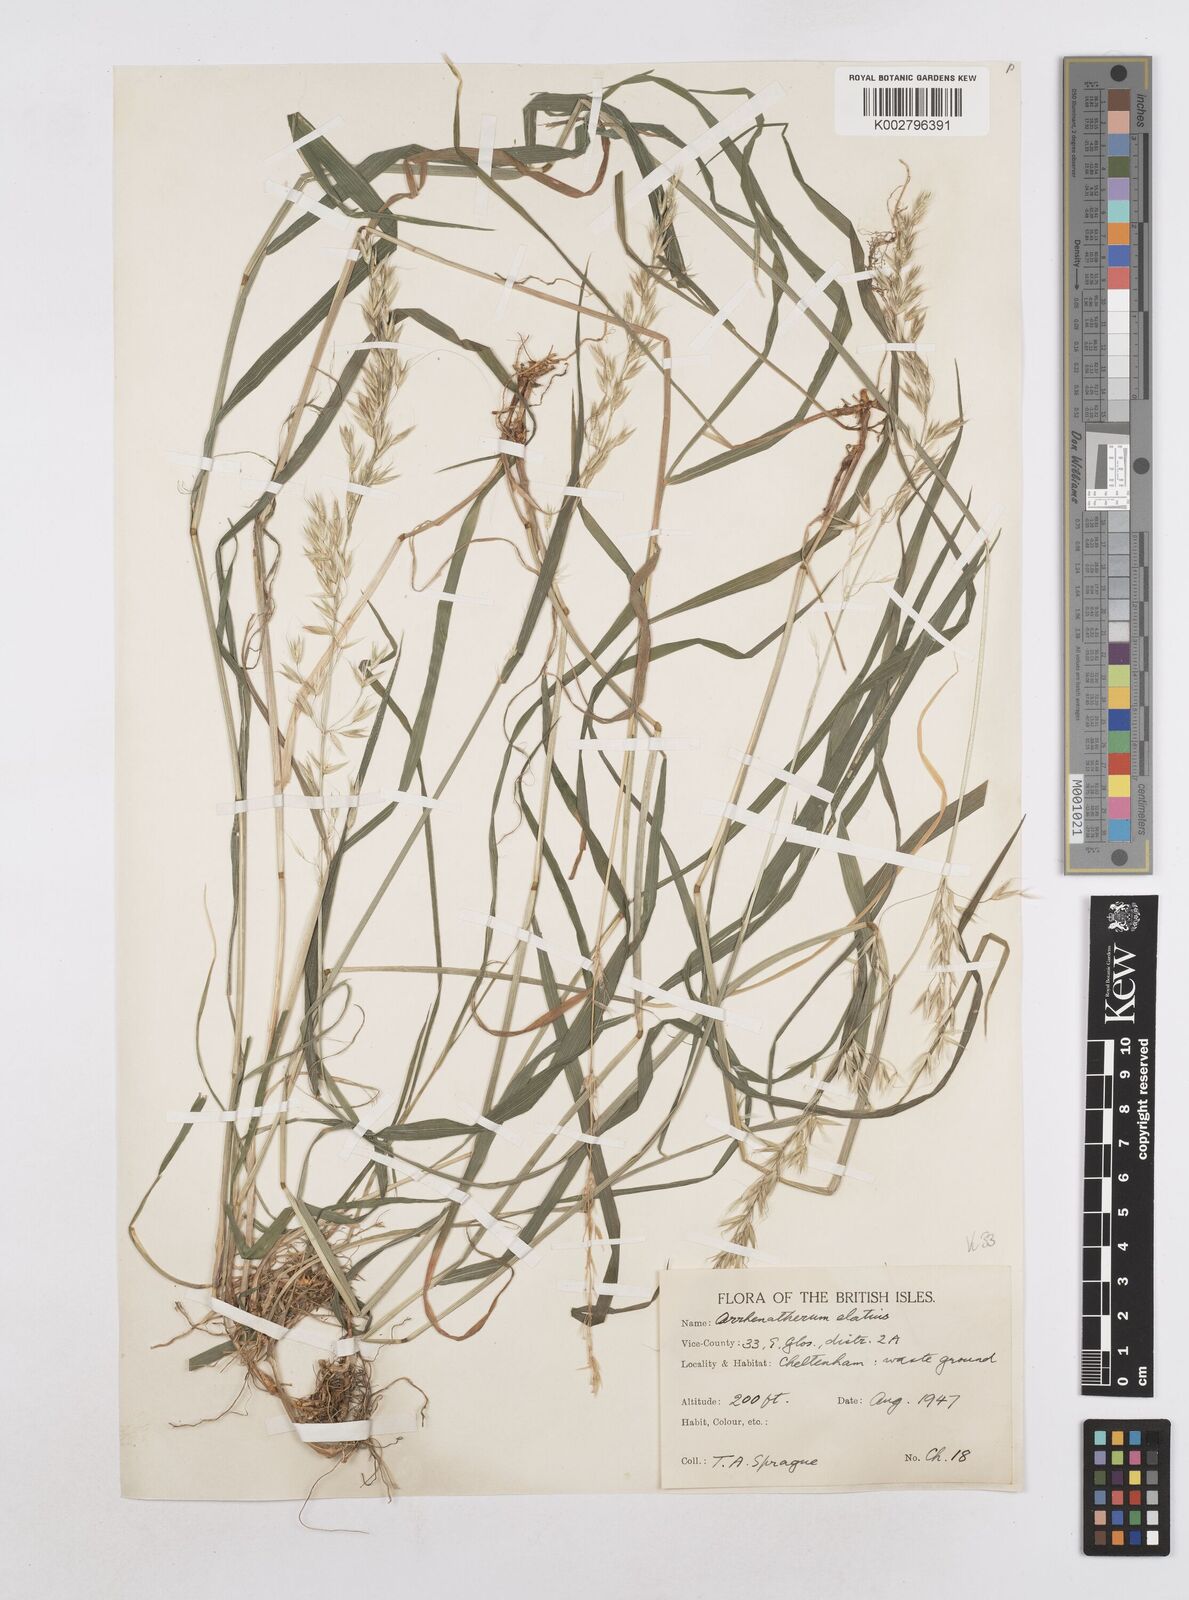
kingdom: Plantae
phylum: Tracheophyta
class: Liliopsida
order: Poales
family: Poaceae
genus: Arrhenatherum
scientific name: Arrhenatherum elatius
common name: Tall oatgrass
